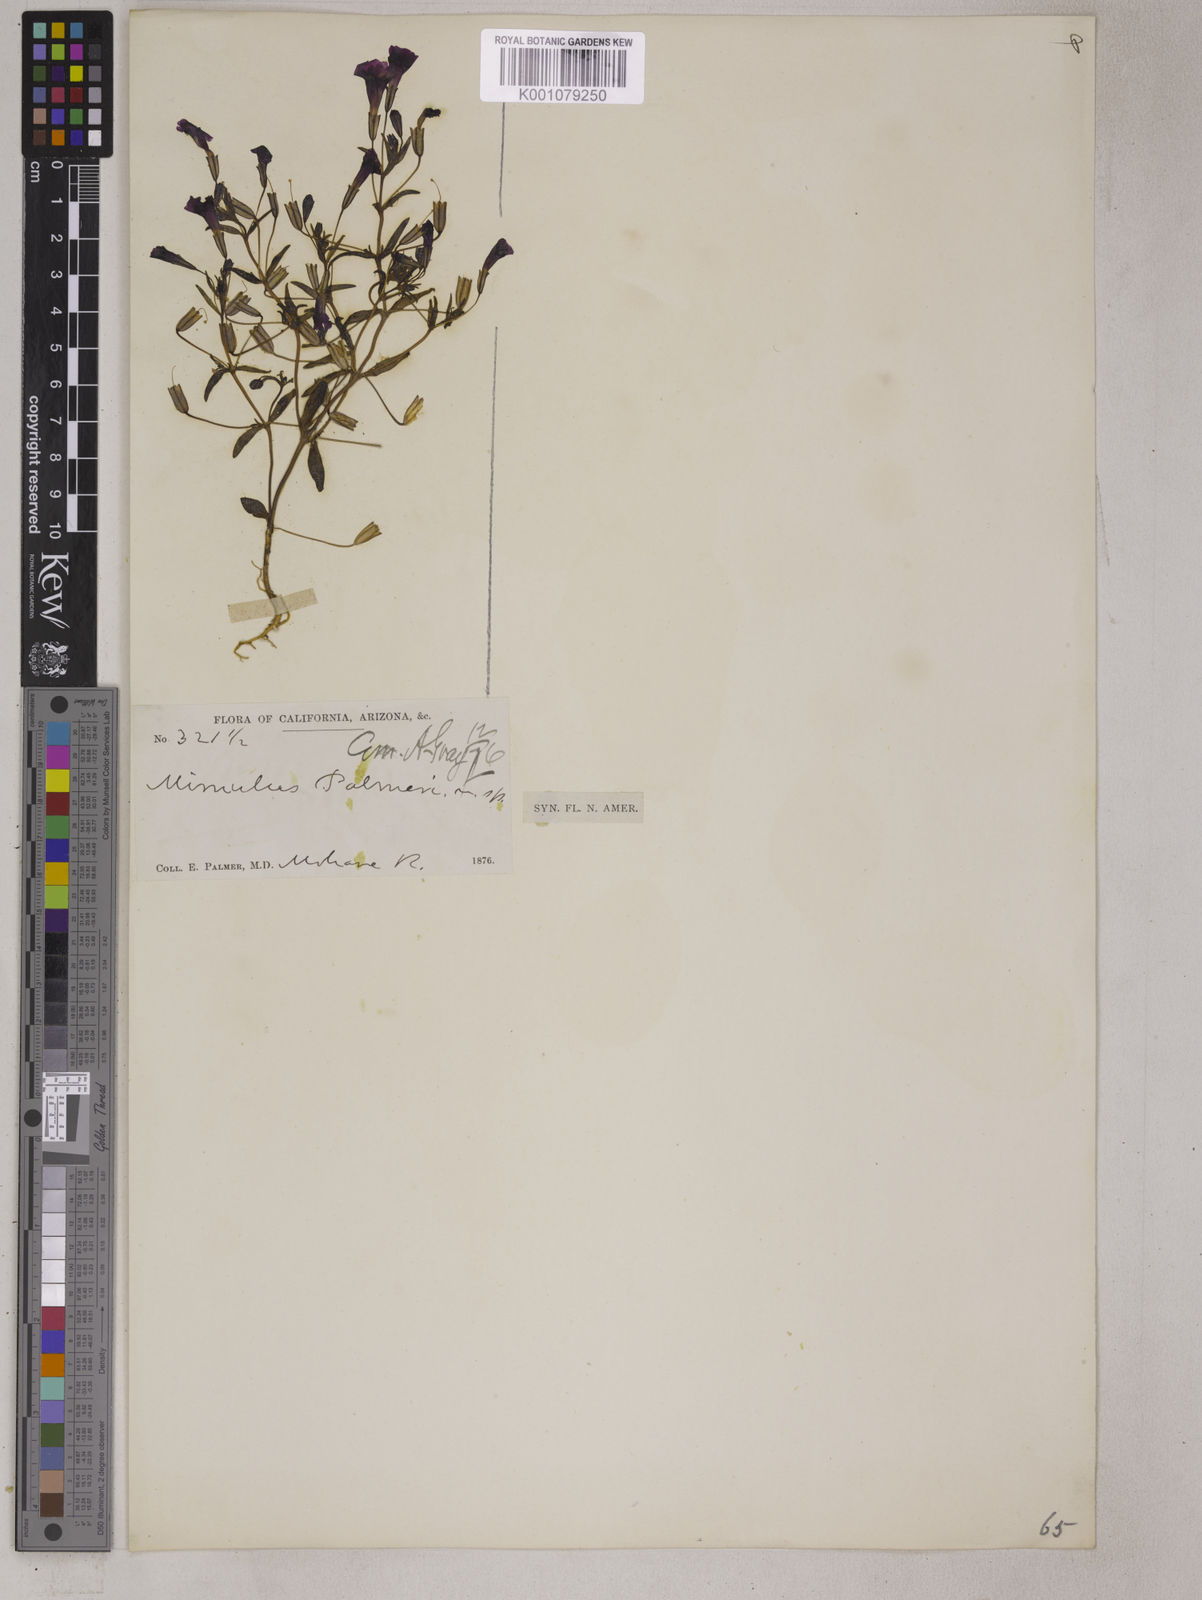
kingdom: Plantae
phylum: Tracheophyta
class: Magnoliopsida
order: Lamiales
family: Phrymaceae
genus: Erythranthe
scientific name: Erythranthe palmeri
